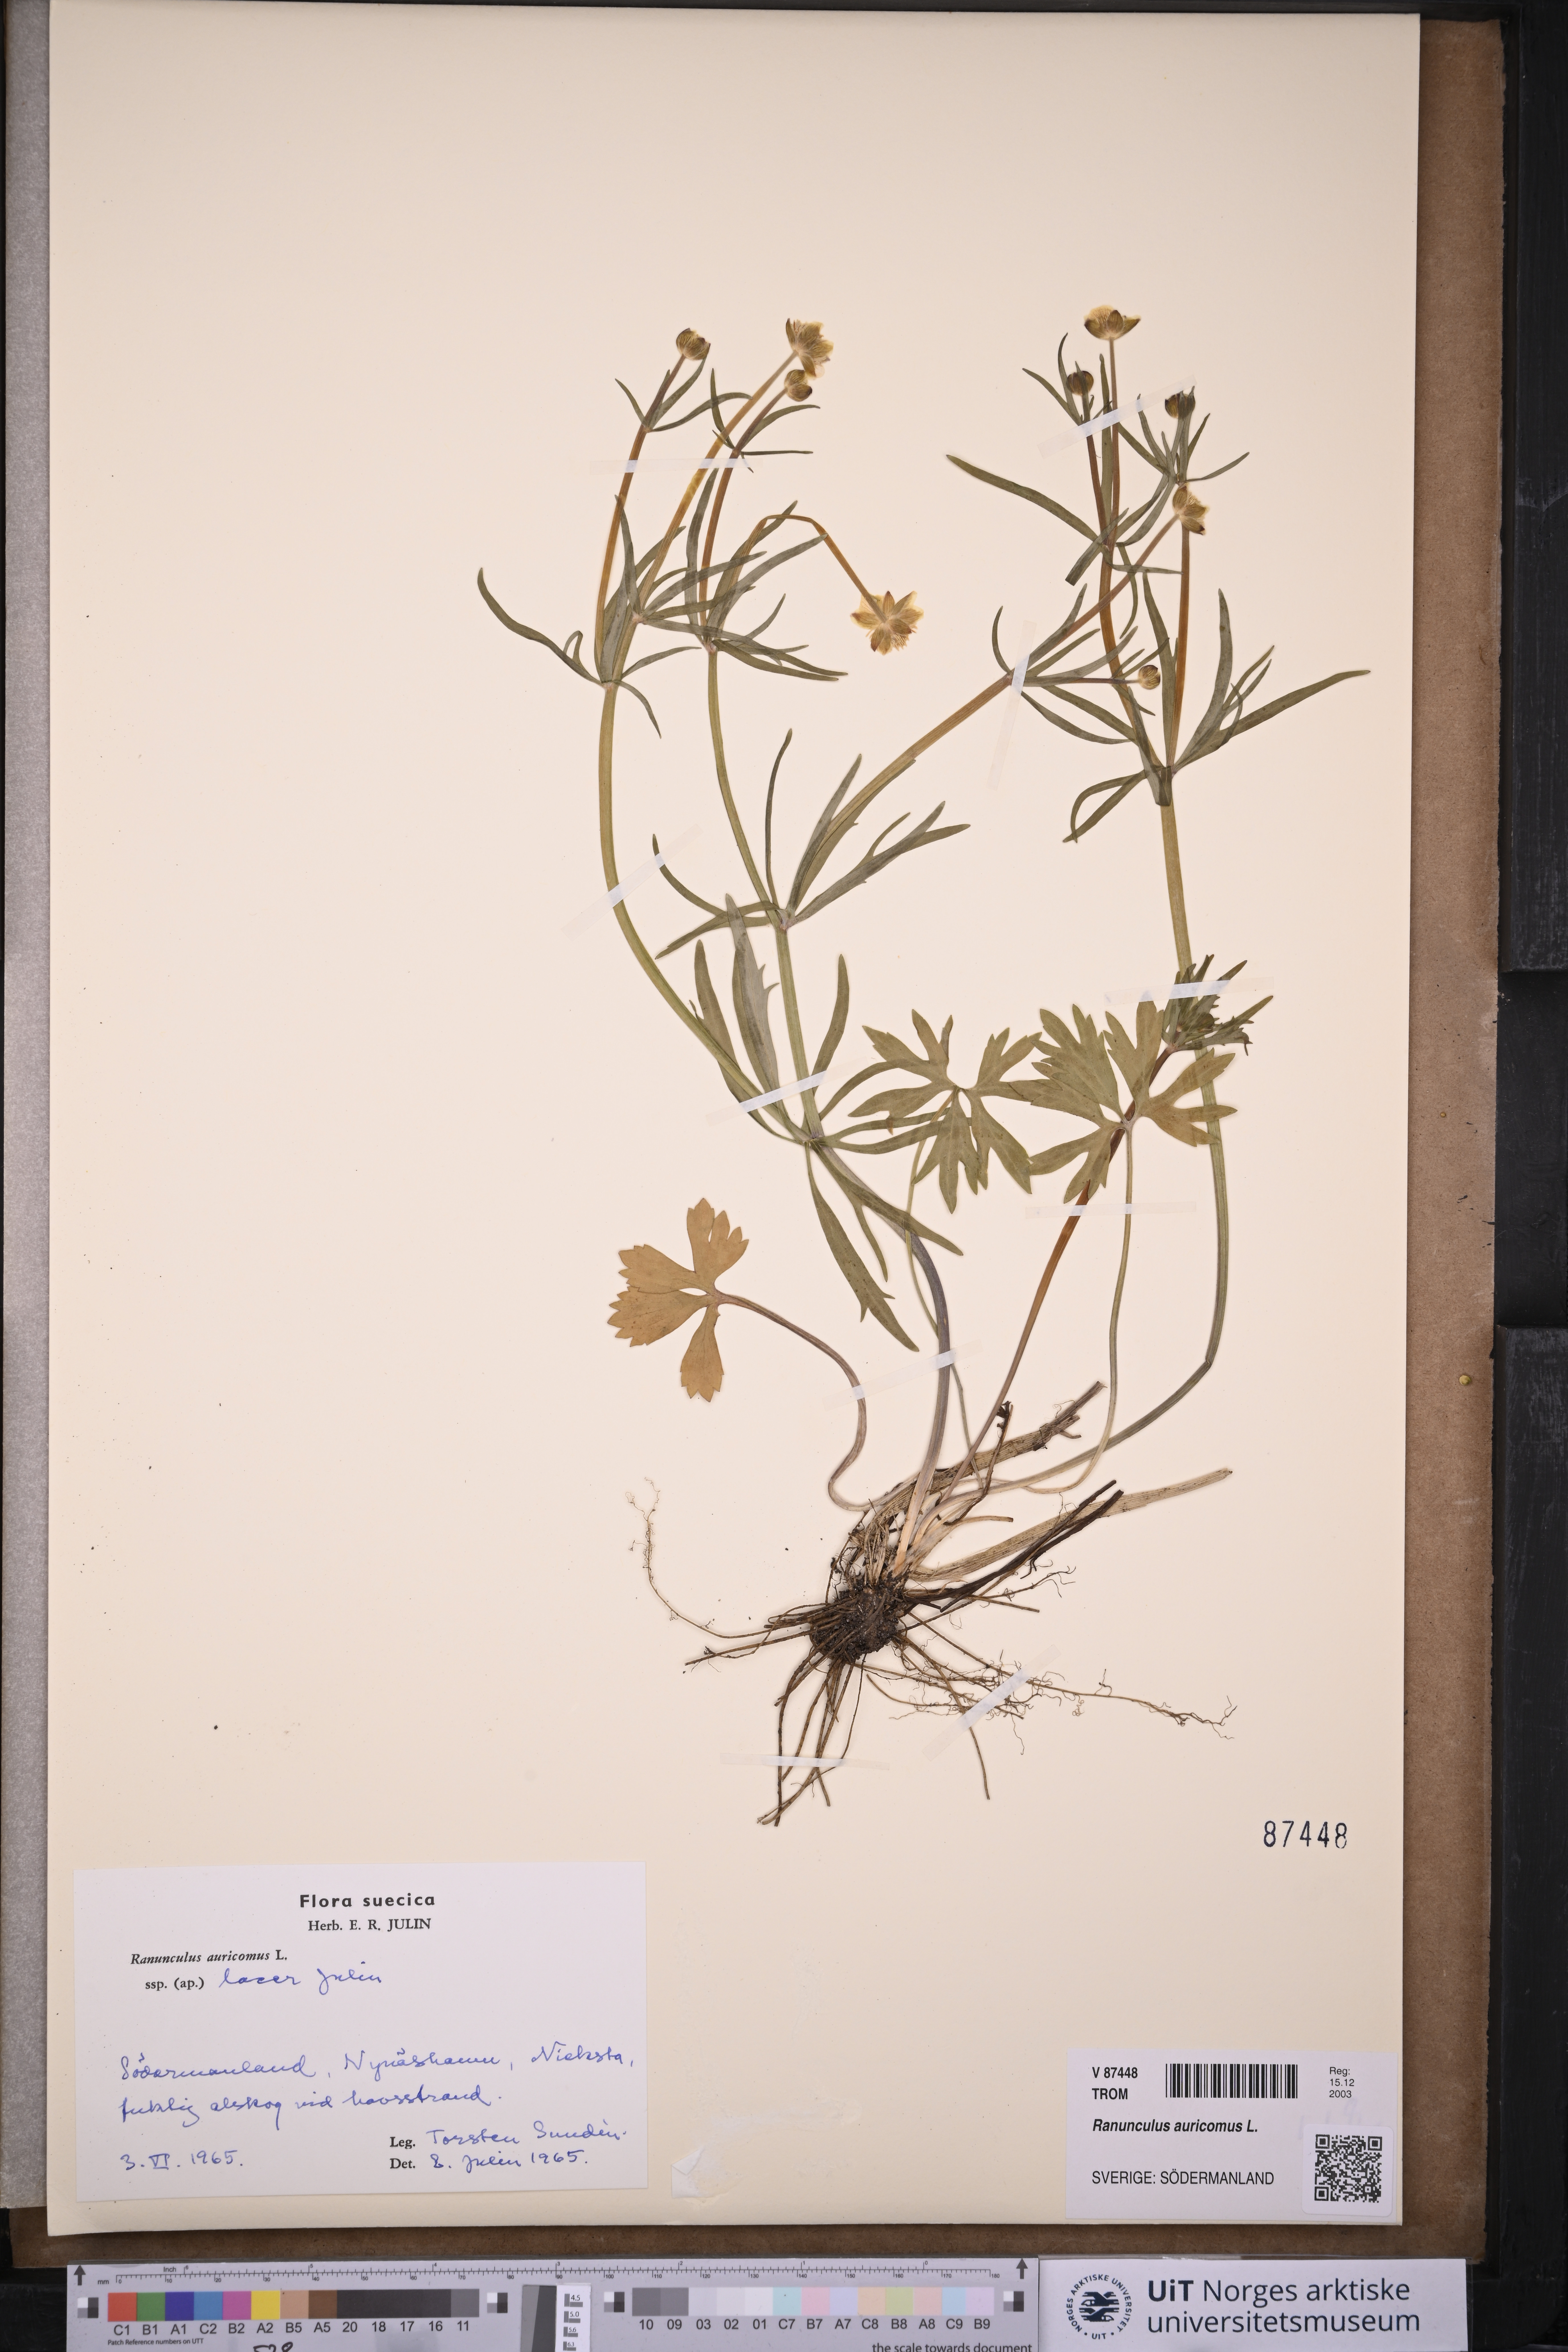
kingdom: Plantae
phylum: Tracheophyta
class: Magnoliopsida
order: Ranunculales
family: Ranunculaceae
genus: Ranunculus
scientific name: Ranunculus auricomus
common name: Goldilocks buttercup
